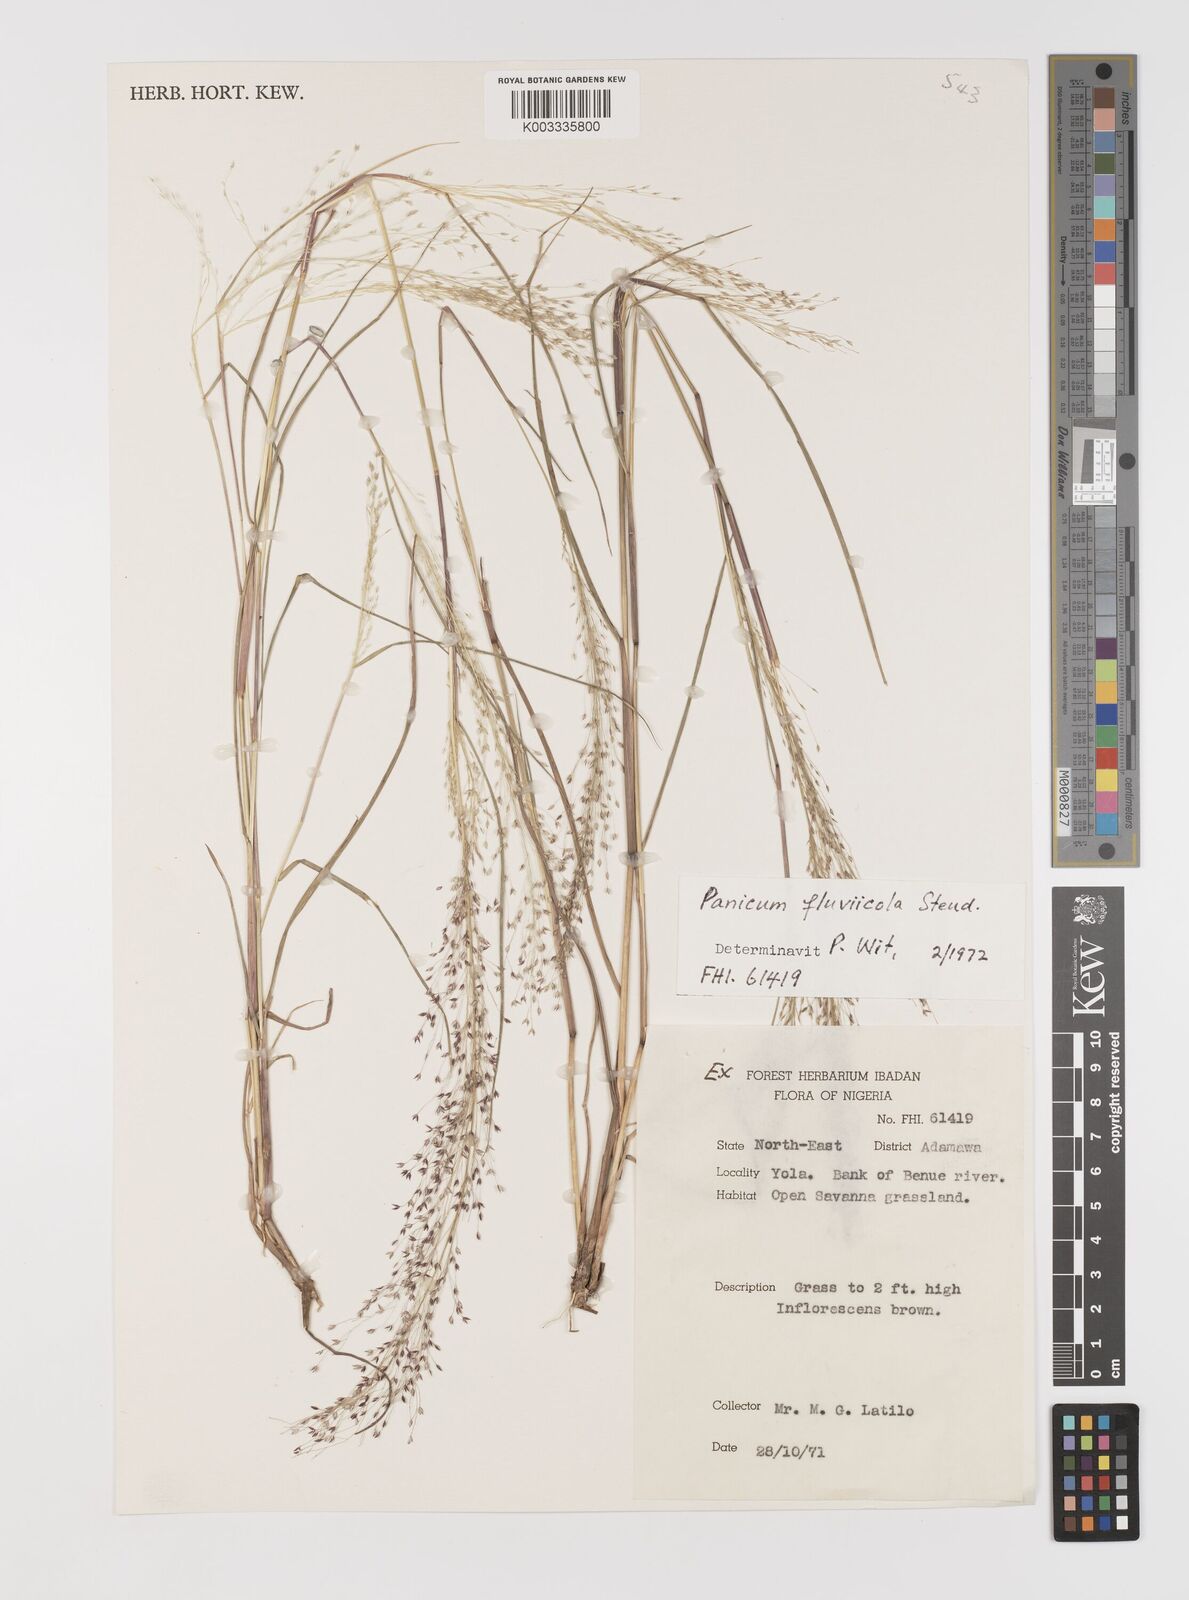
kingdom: Plantae
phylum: Tracheophyta
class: Liliopsida
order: Poales
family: Poaceae
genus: Panicum
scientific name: Panicum fluviicola
